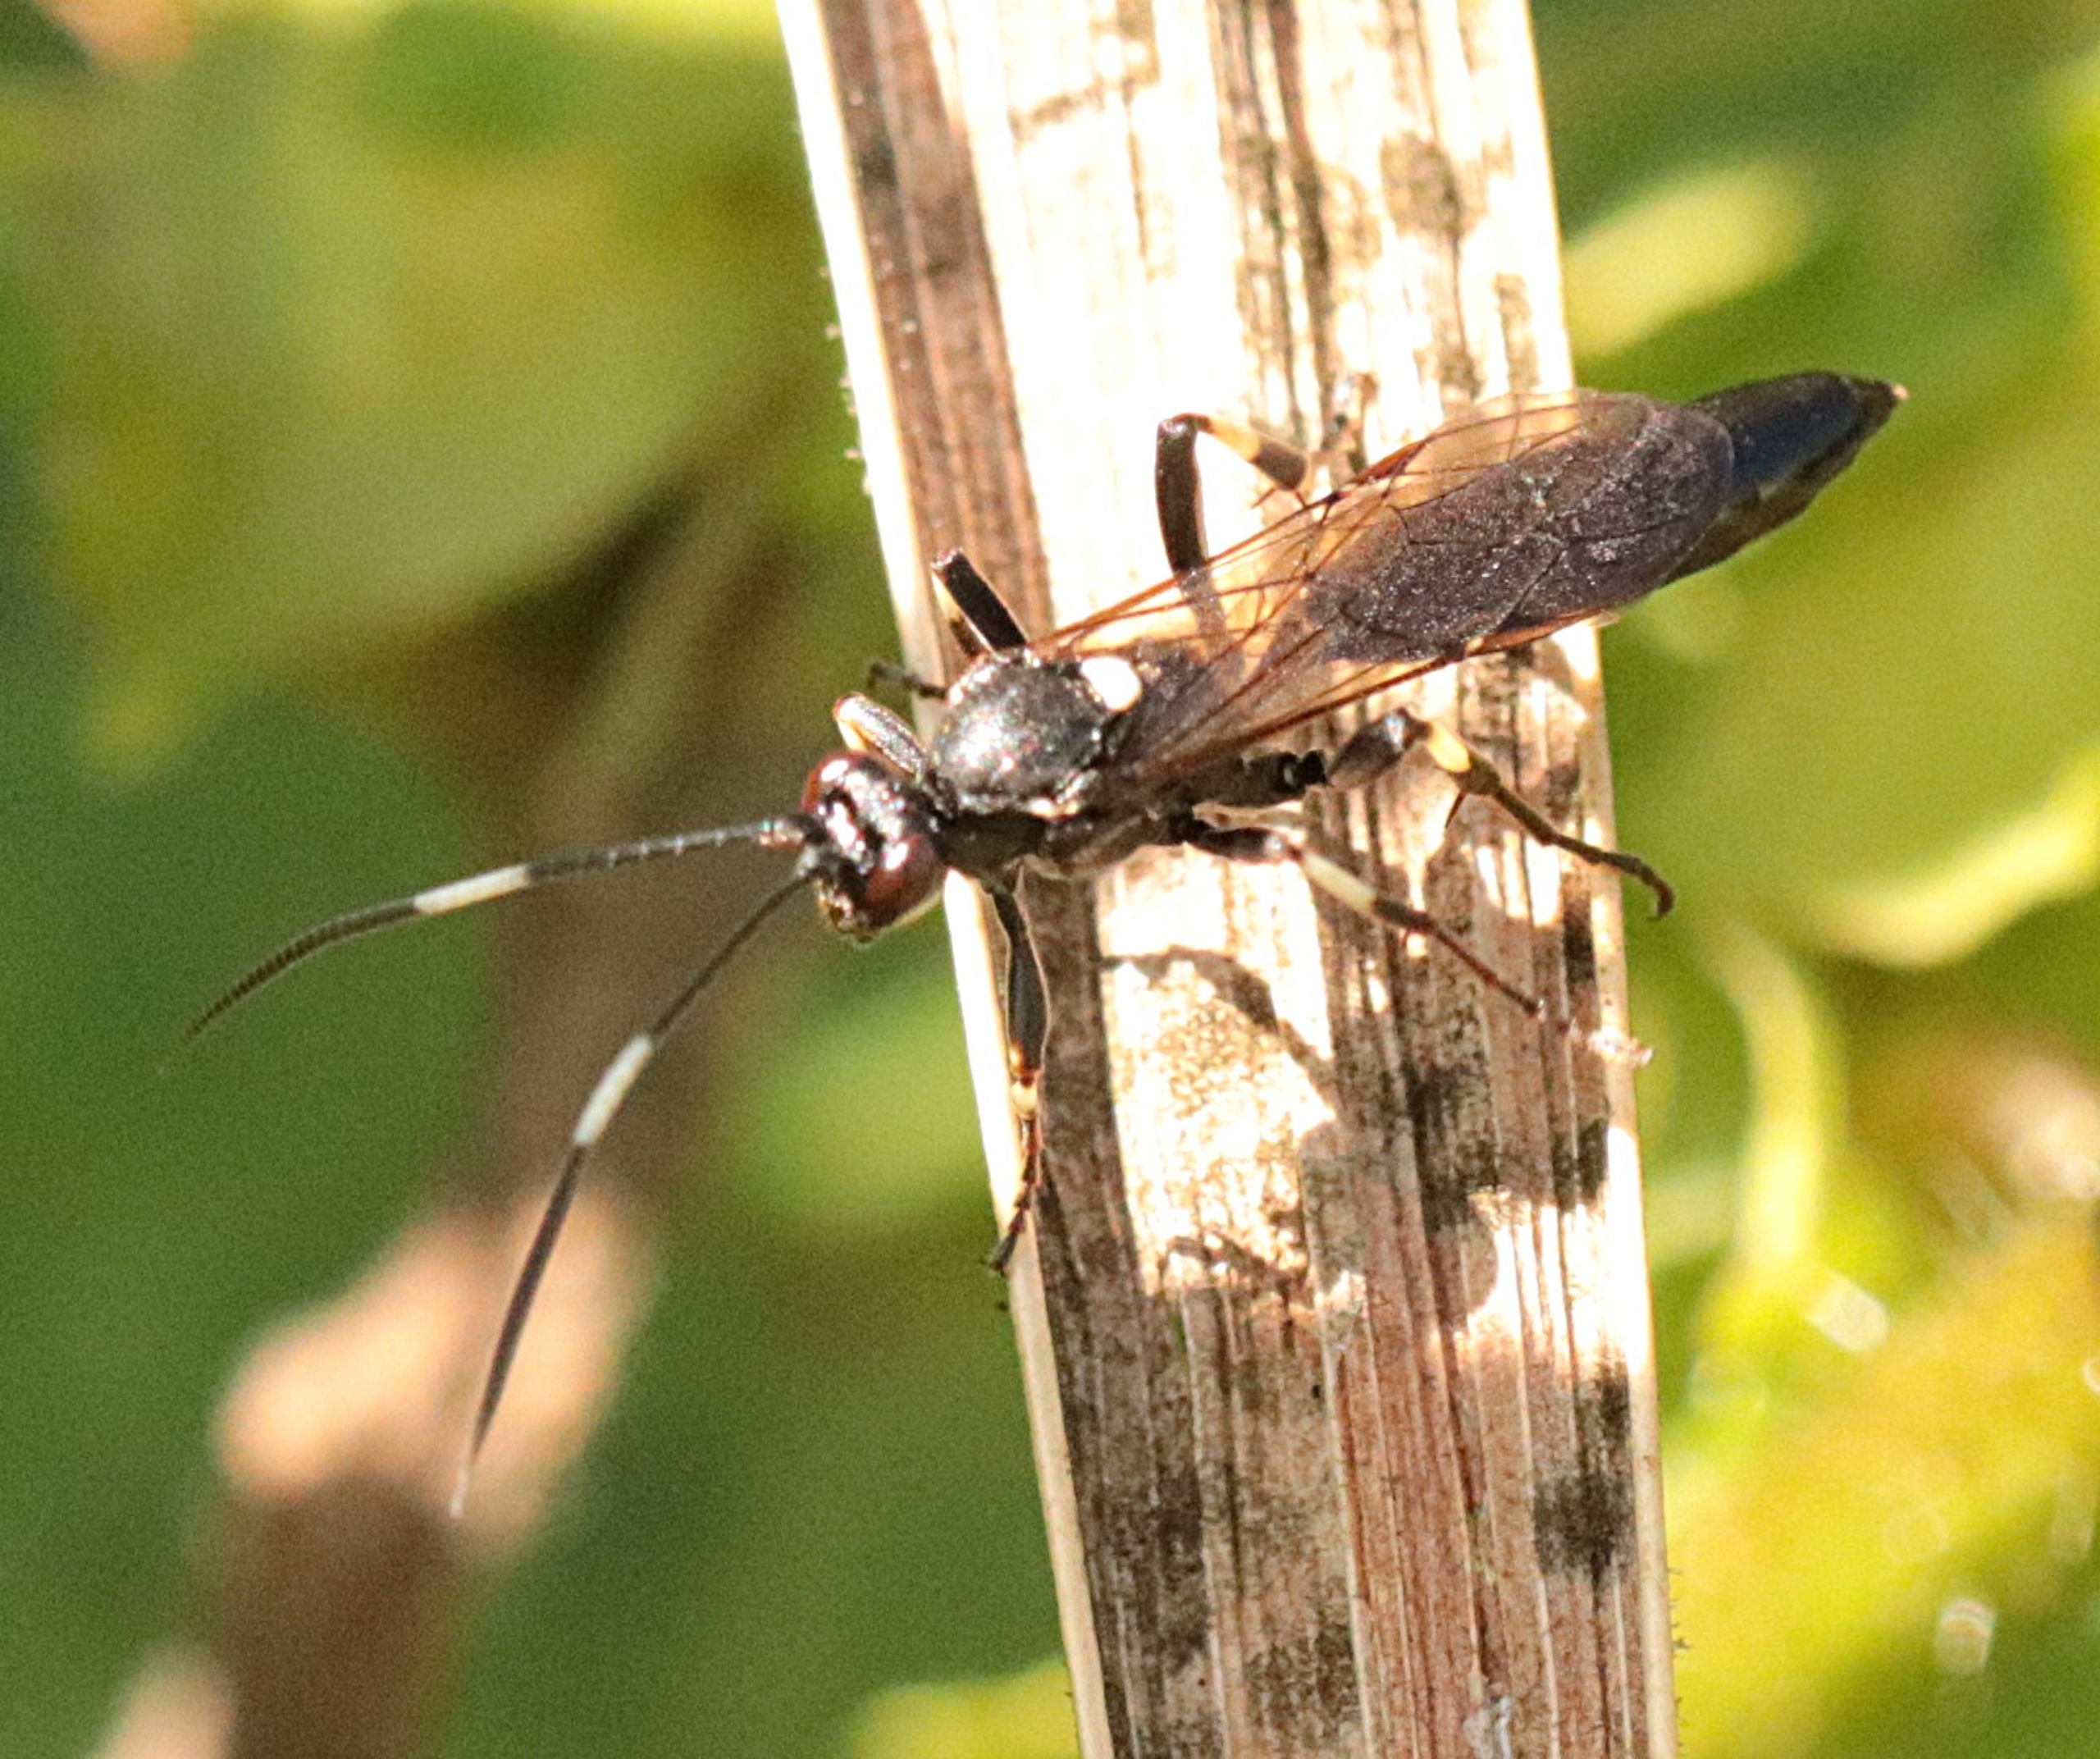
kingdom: Animalia
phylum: Arthropoda
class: Insecta
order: Hymenoptera
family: Ichneumonidae
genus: Stenichneumon
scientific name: Stenichneumon militarius
